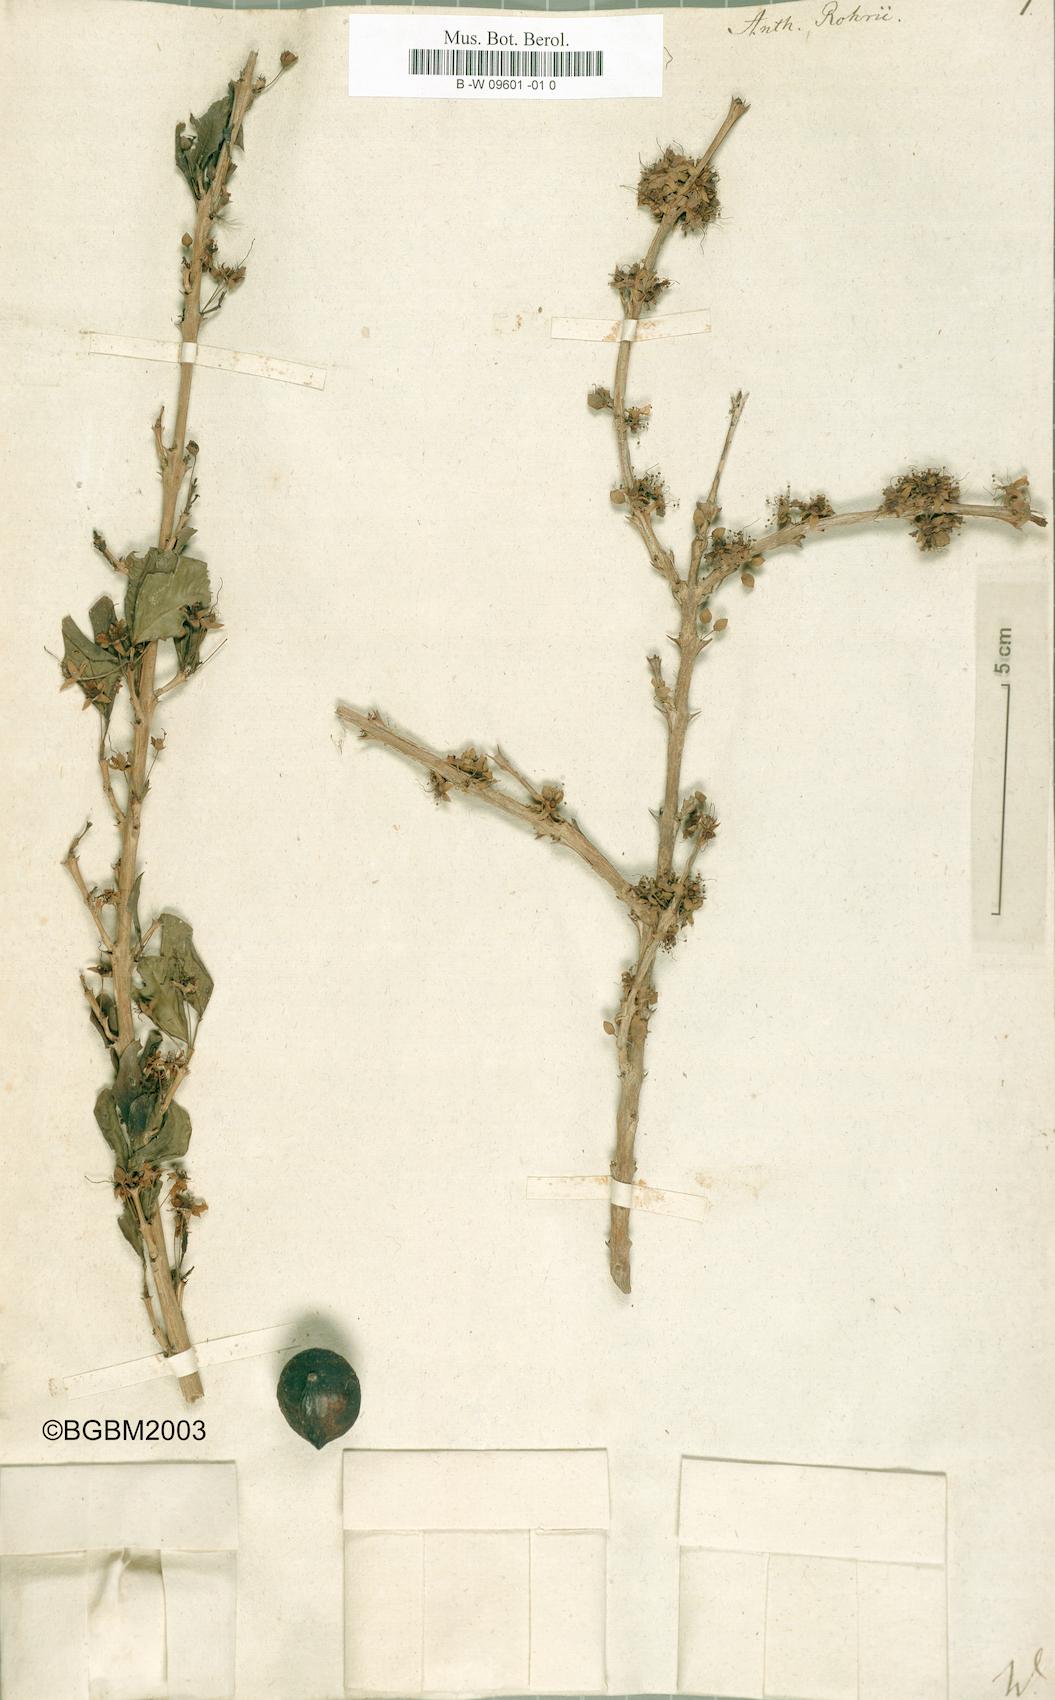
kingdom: Plantae
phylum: Tracheophyta
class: Magnoliopsida
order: Myrtales
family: Lythraceae
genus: Ginoria
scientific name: Ginoria rohrii
